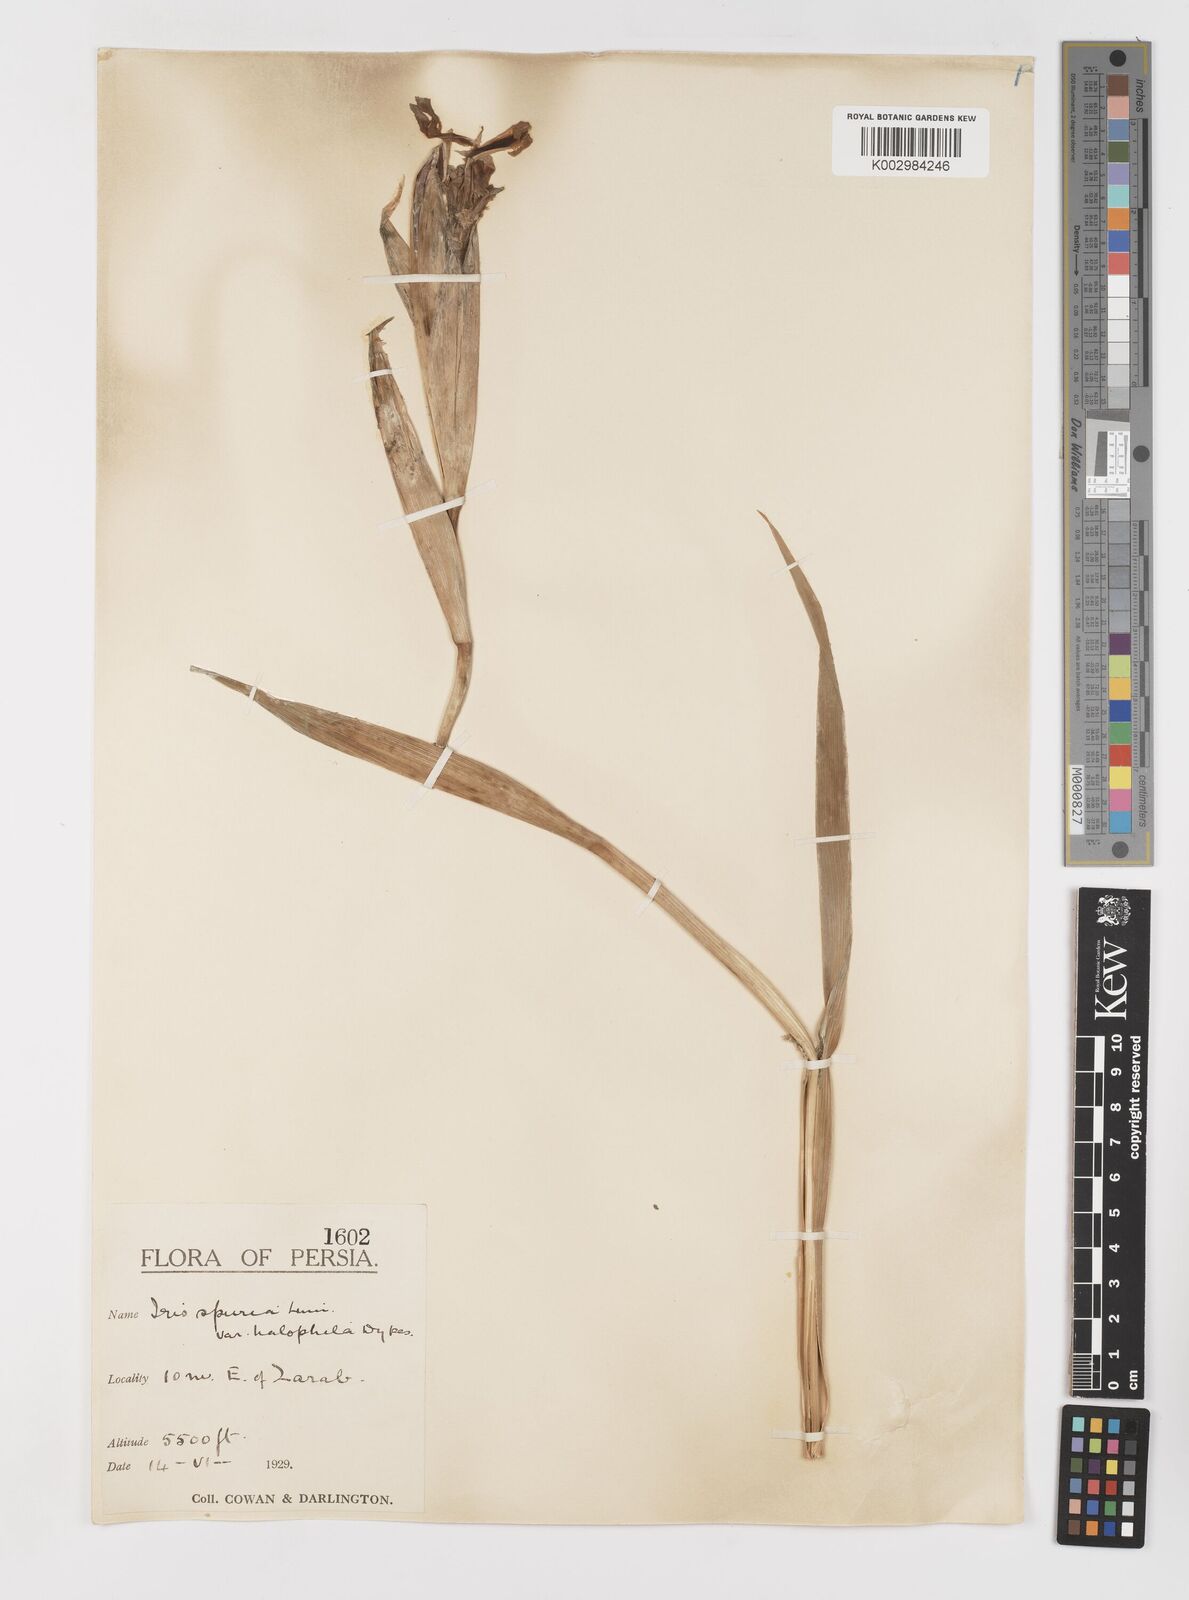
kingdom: Plantae
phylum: Tracheophyta
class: Liliopsida
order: Asparagales
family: Iridaceae
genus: Iris
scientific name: Iris spuria
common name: Blue iris
